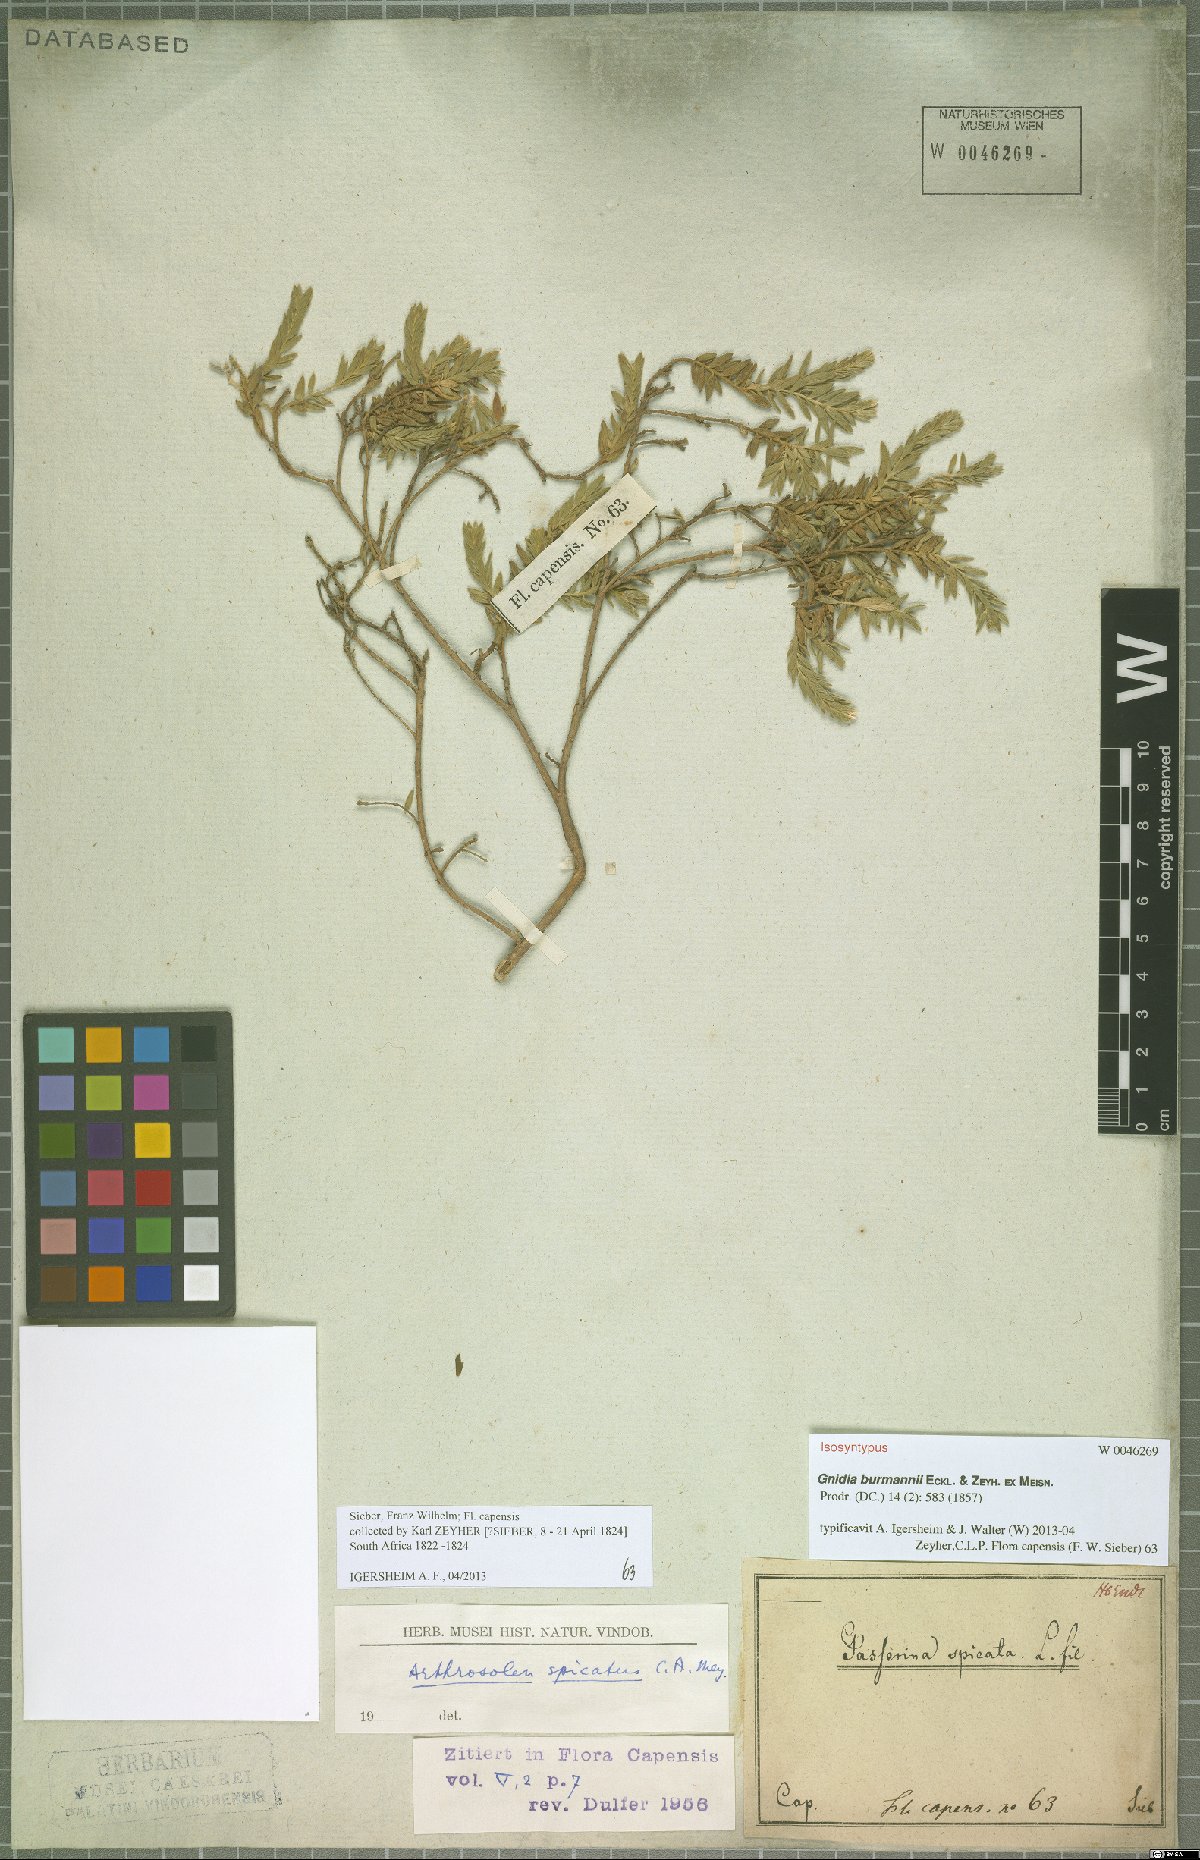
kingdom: Plantae
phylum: Tracheophyta
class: Magnoliopsida
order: Malvales
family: Thymelaeaceae
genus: Gnidia
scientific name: Gnidia burmanni
